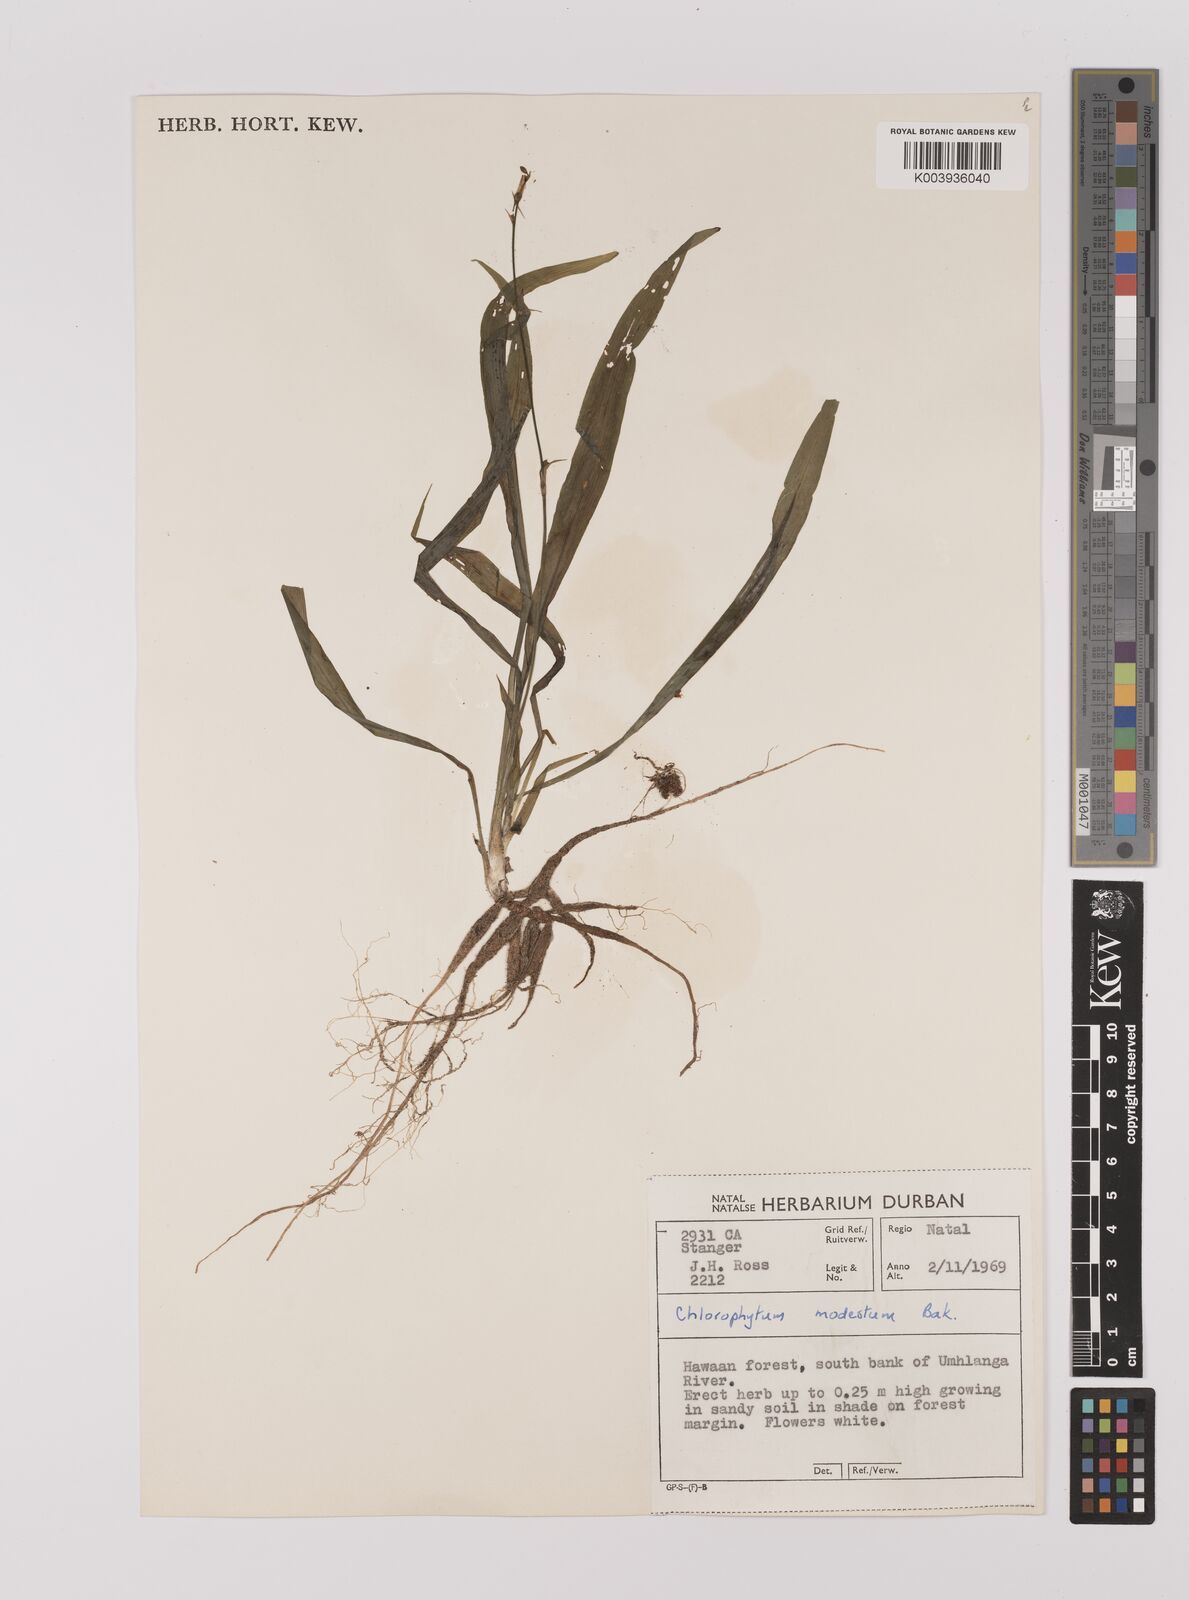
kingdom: Plantae
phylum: Tracheophyta
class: Liliopsida
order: Asparagales
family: Asparagaceae
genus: Chlorophytum
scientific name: Chlorophytum modestum
